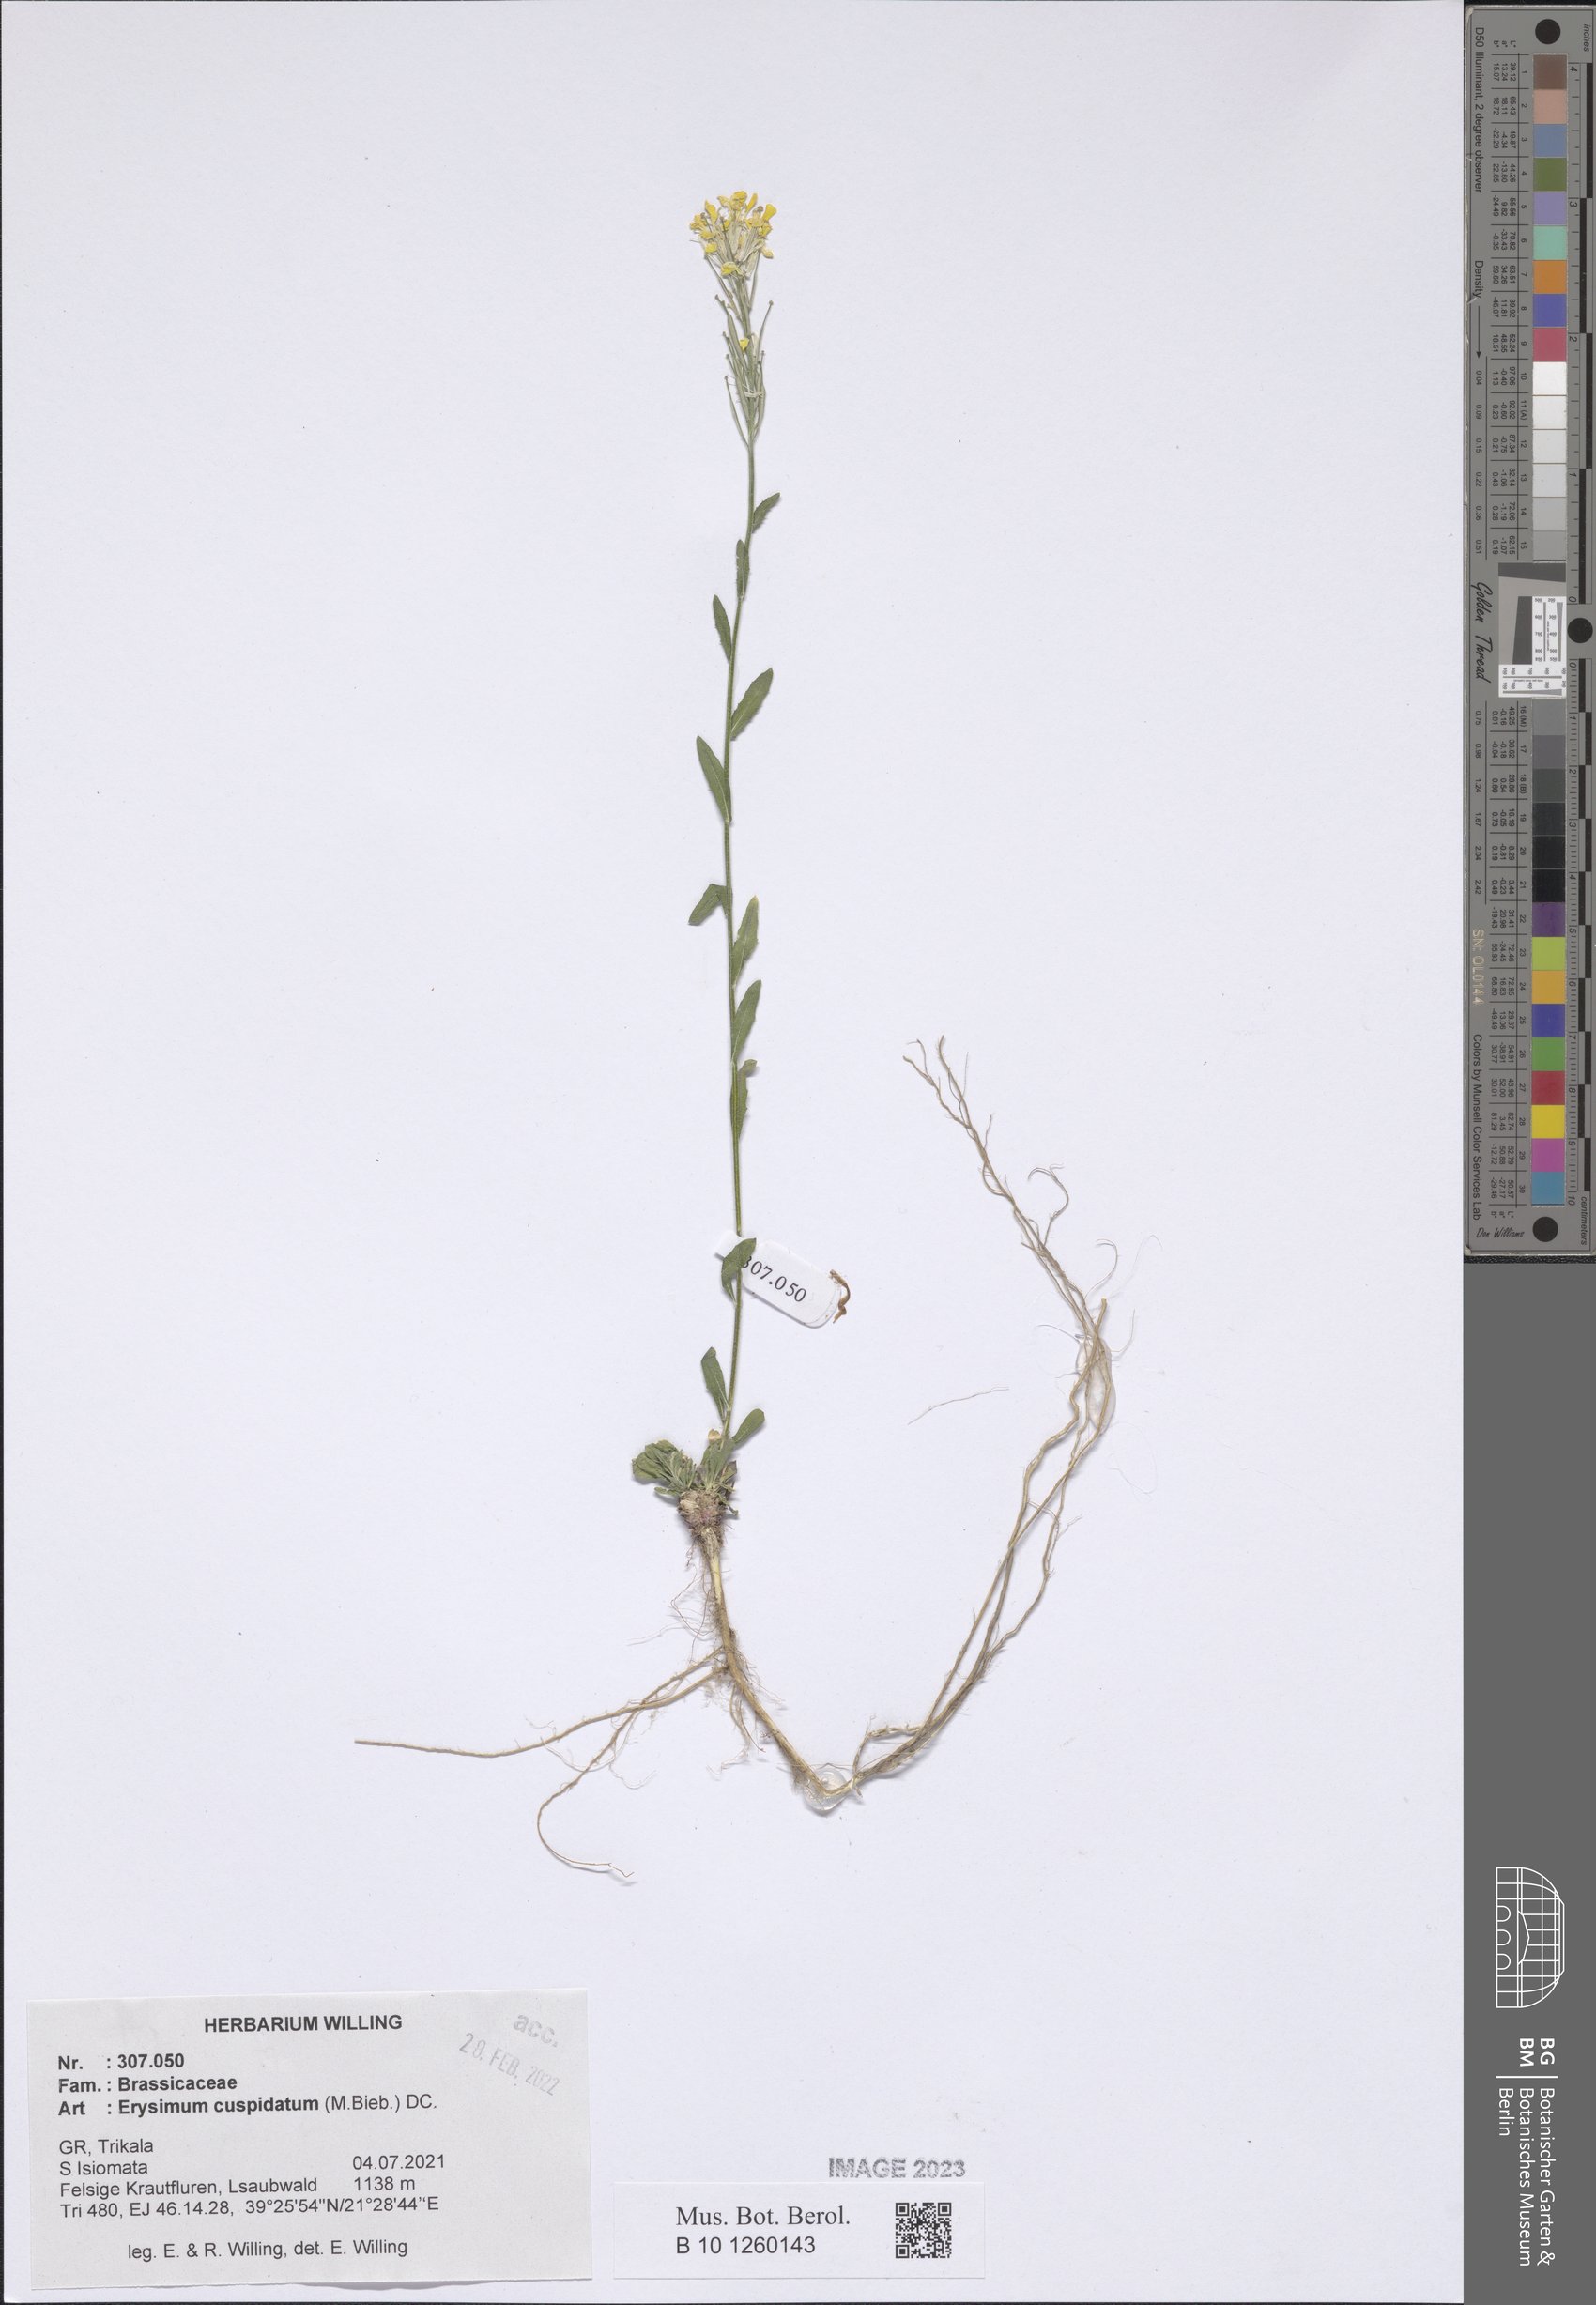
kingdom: Plantae
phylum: Tracheophyta
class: Magnoliopsida
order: Brassicales
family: Brassicaceae
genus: Erysimum
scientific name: Erysimum cuspidatum
